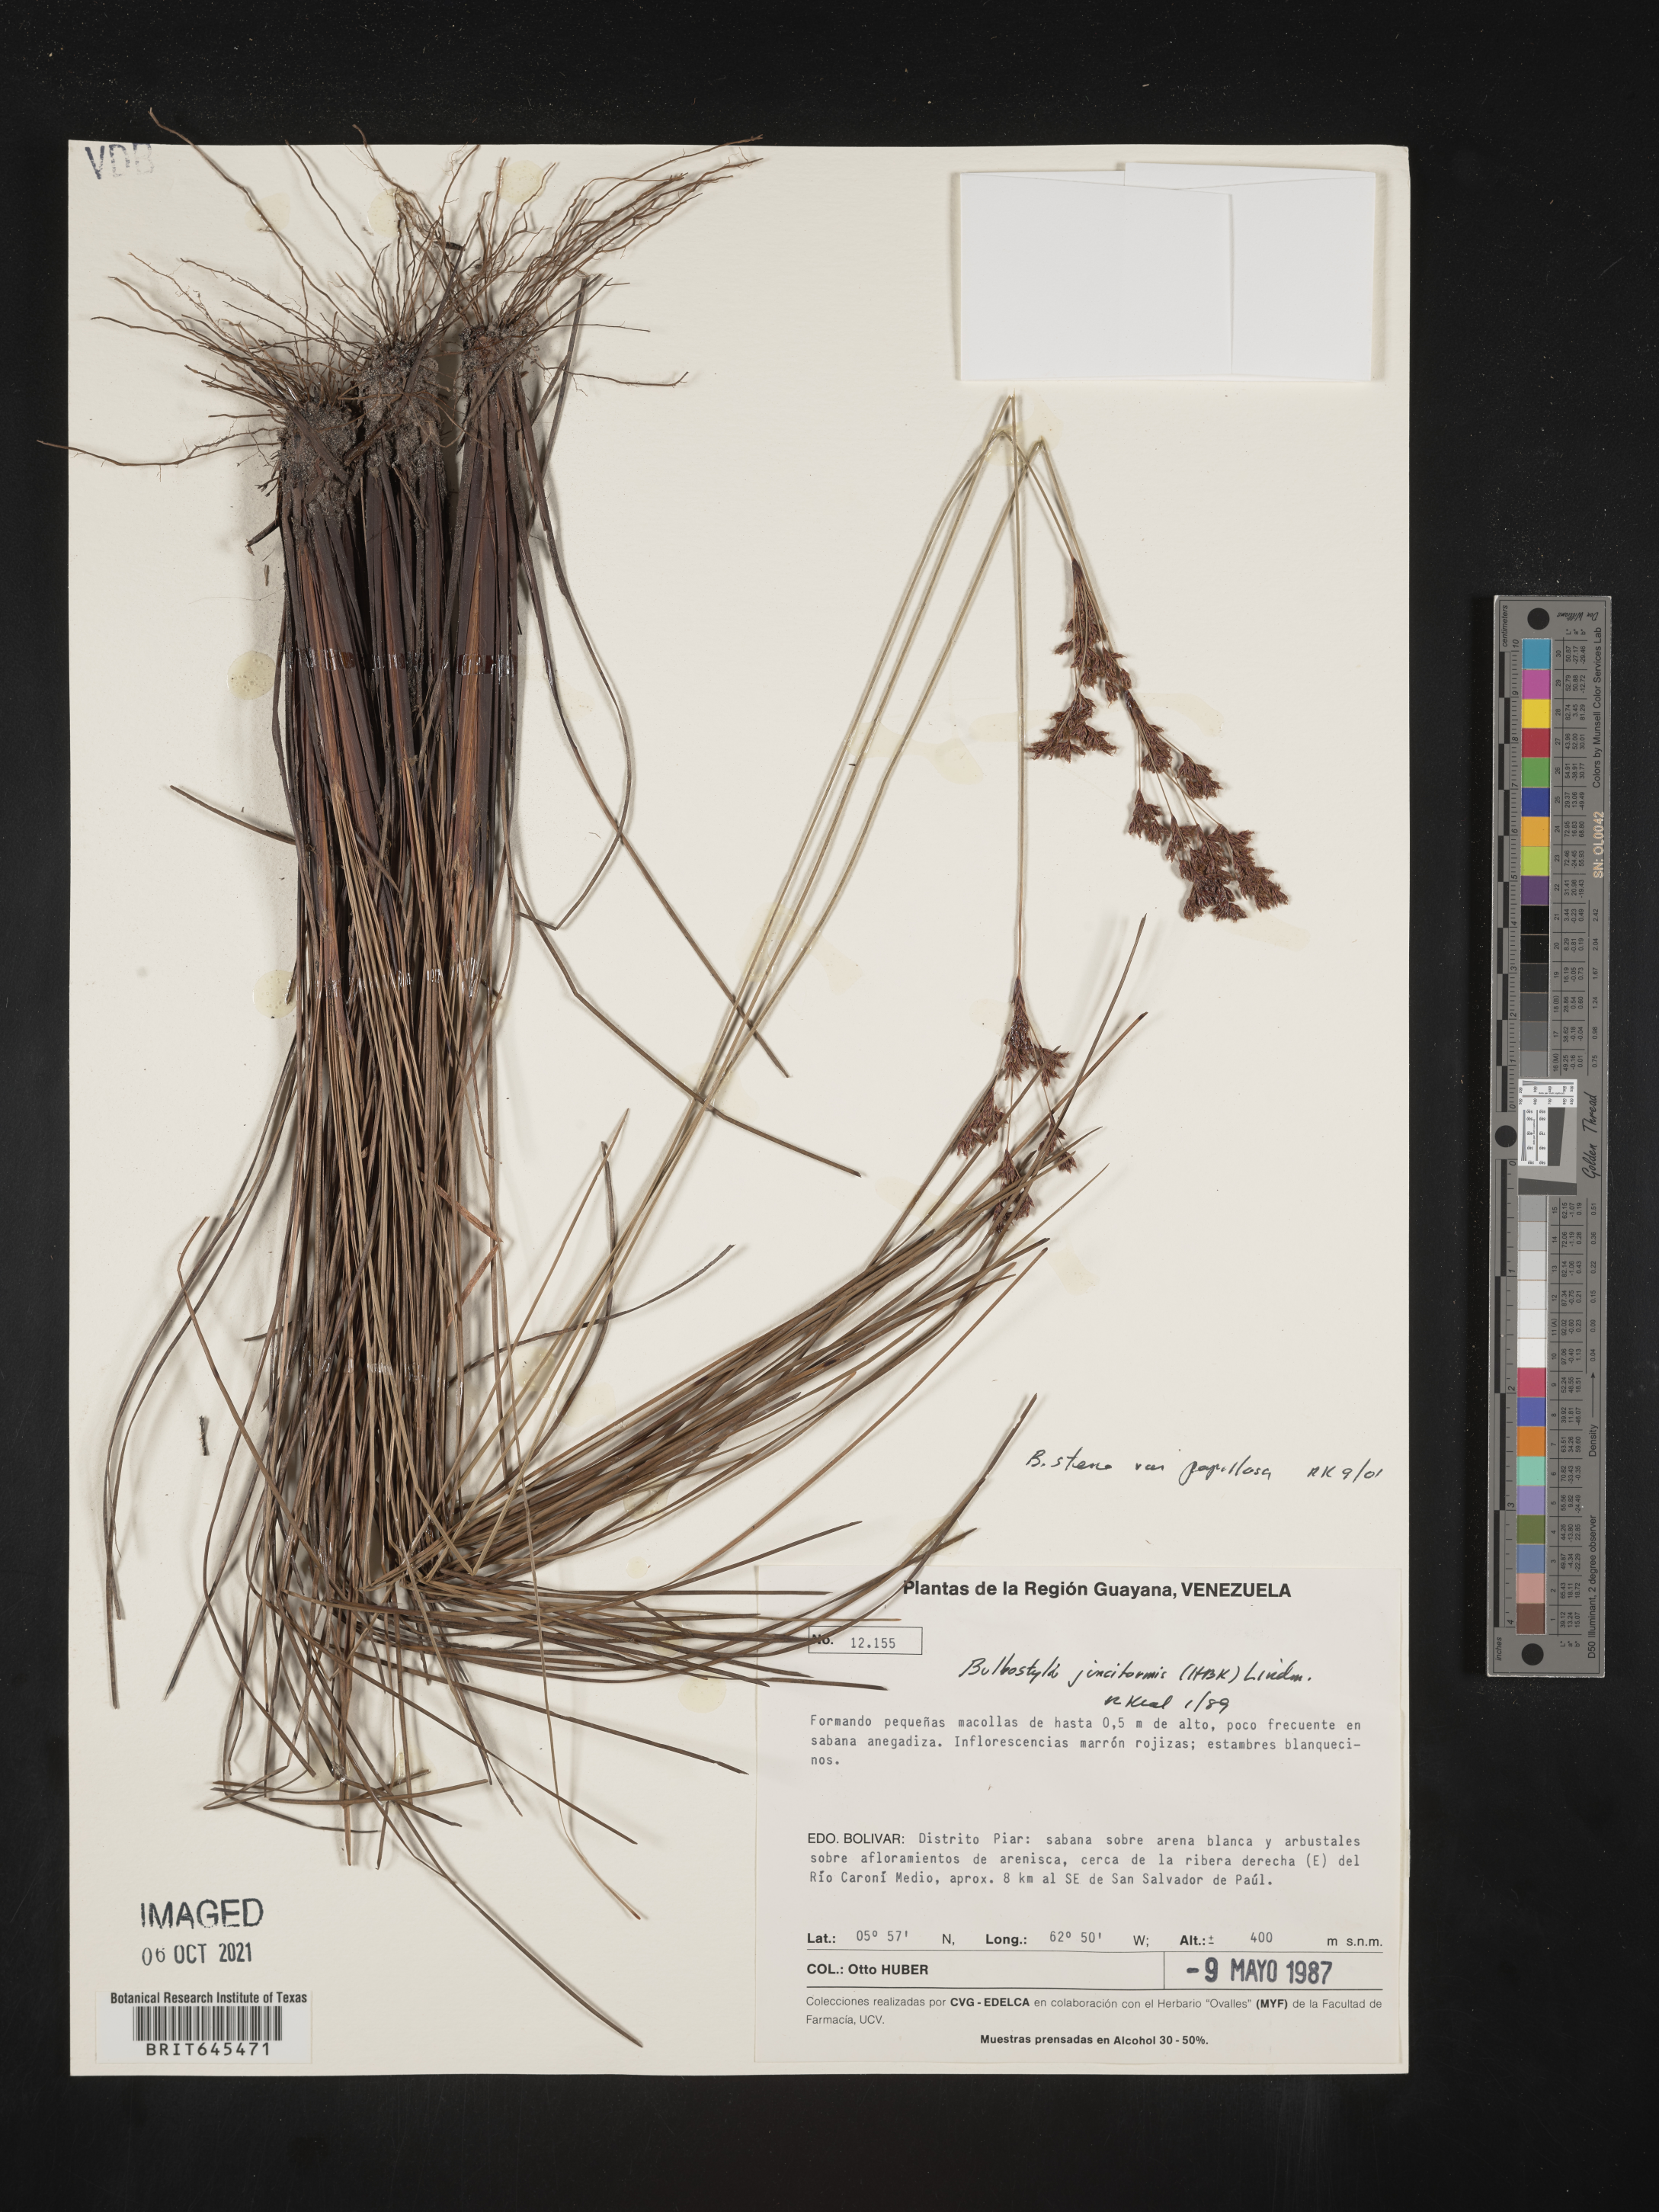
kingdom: Plantae
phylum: Tracheophyta
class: Liliopsida
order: Poales
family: Cyperaceae
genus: Bulbostylis
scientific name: Bulbostylis stenocarpa
